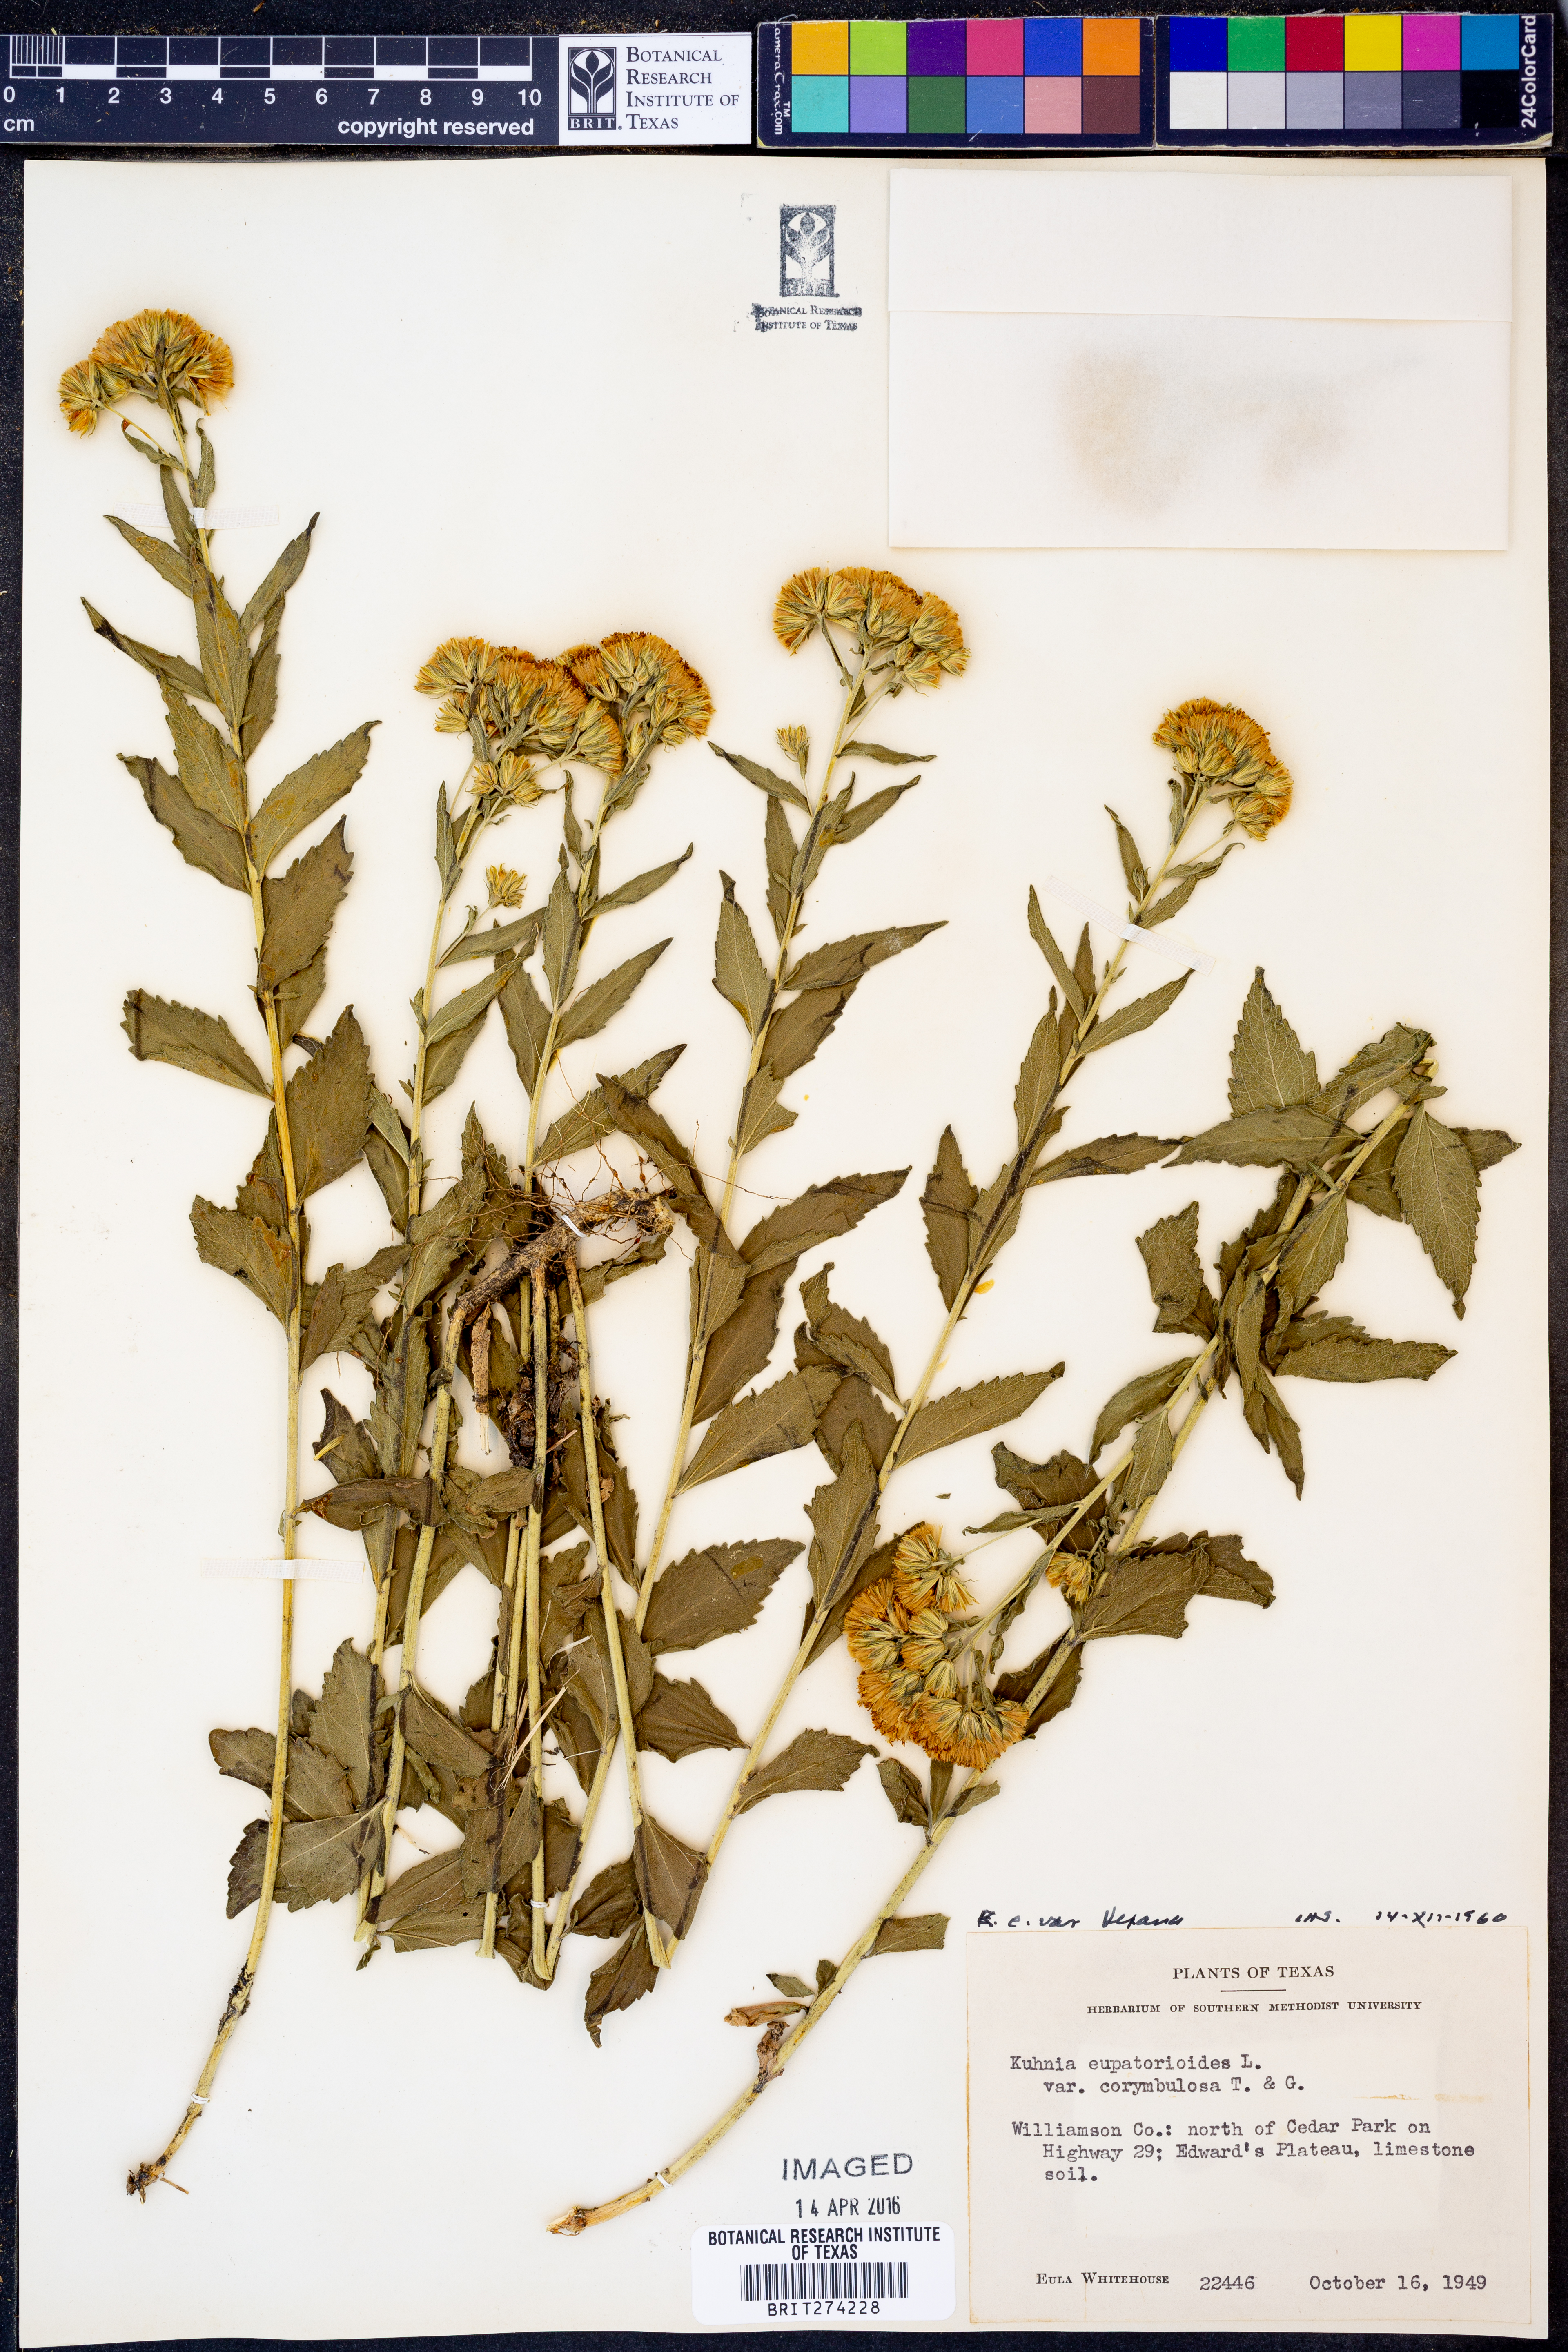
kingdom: Plantae
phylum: Tracheophyta
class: Magnoliopsida
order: Asterales
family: Asteraceae
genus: Brickellia
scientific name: Brickellia
